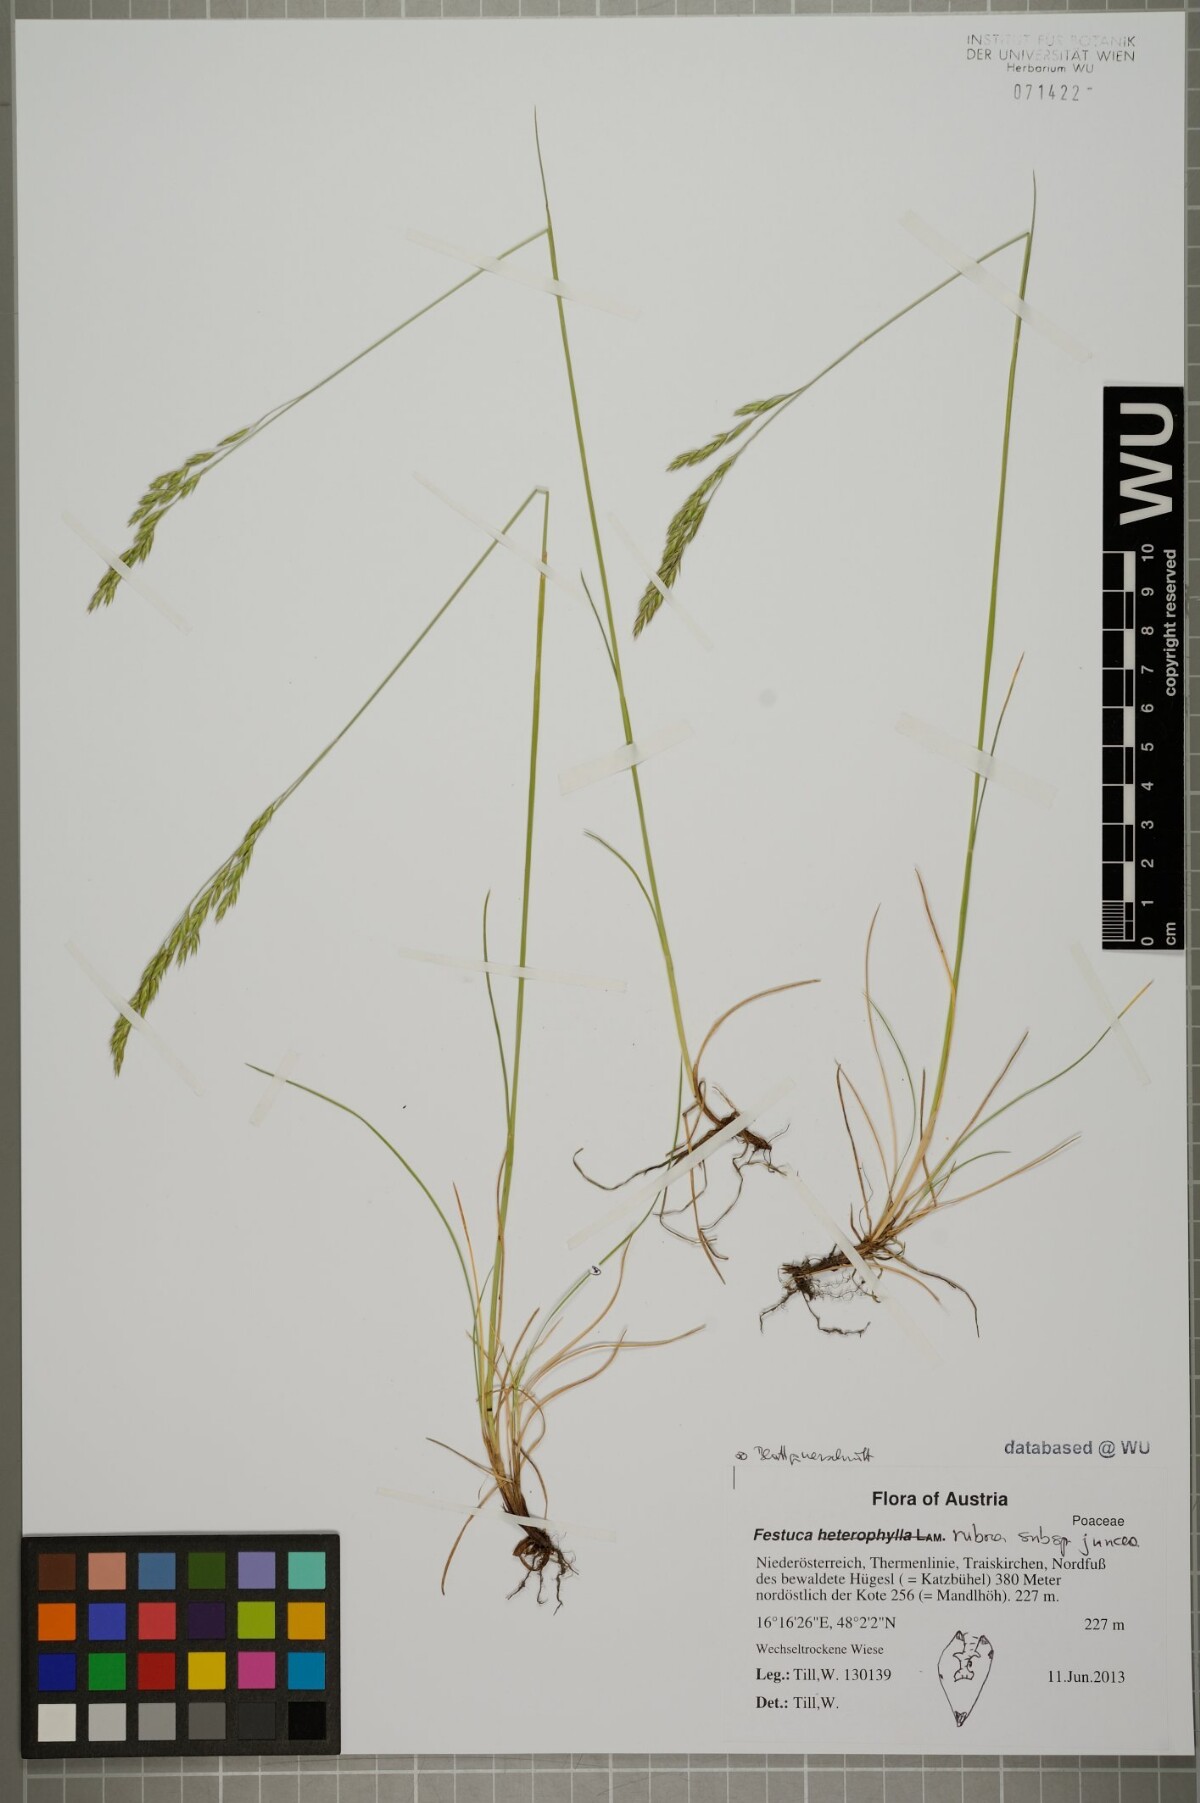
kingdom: Plantae
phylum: Tracheophyta
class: Liliopsida
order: Poales
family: Poaceae
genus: Festuca
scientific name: Festuca rubra
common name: Red fescue
